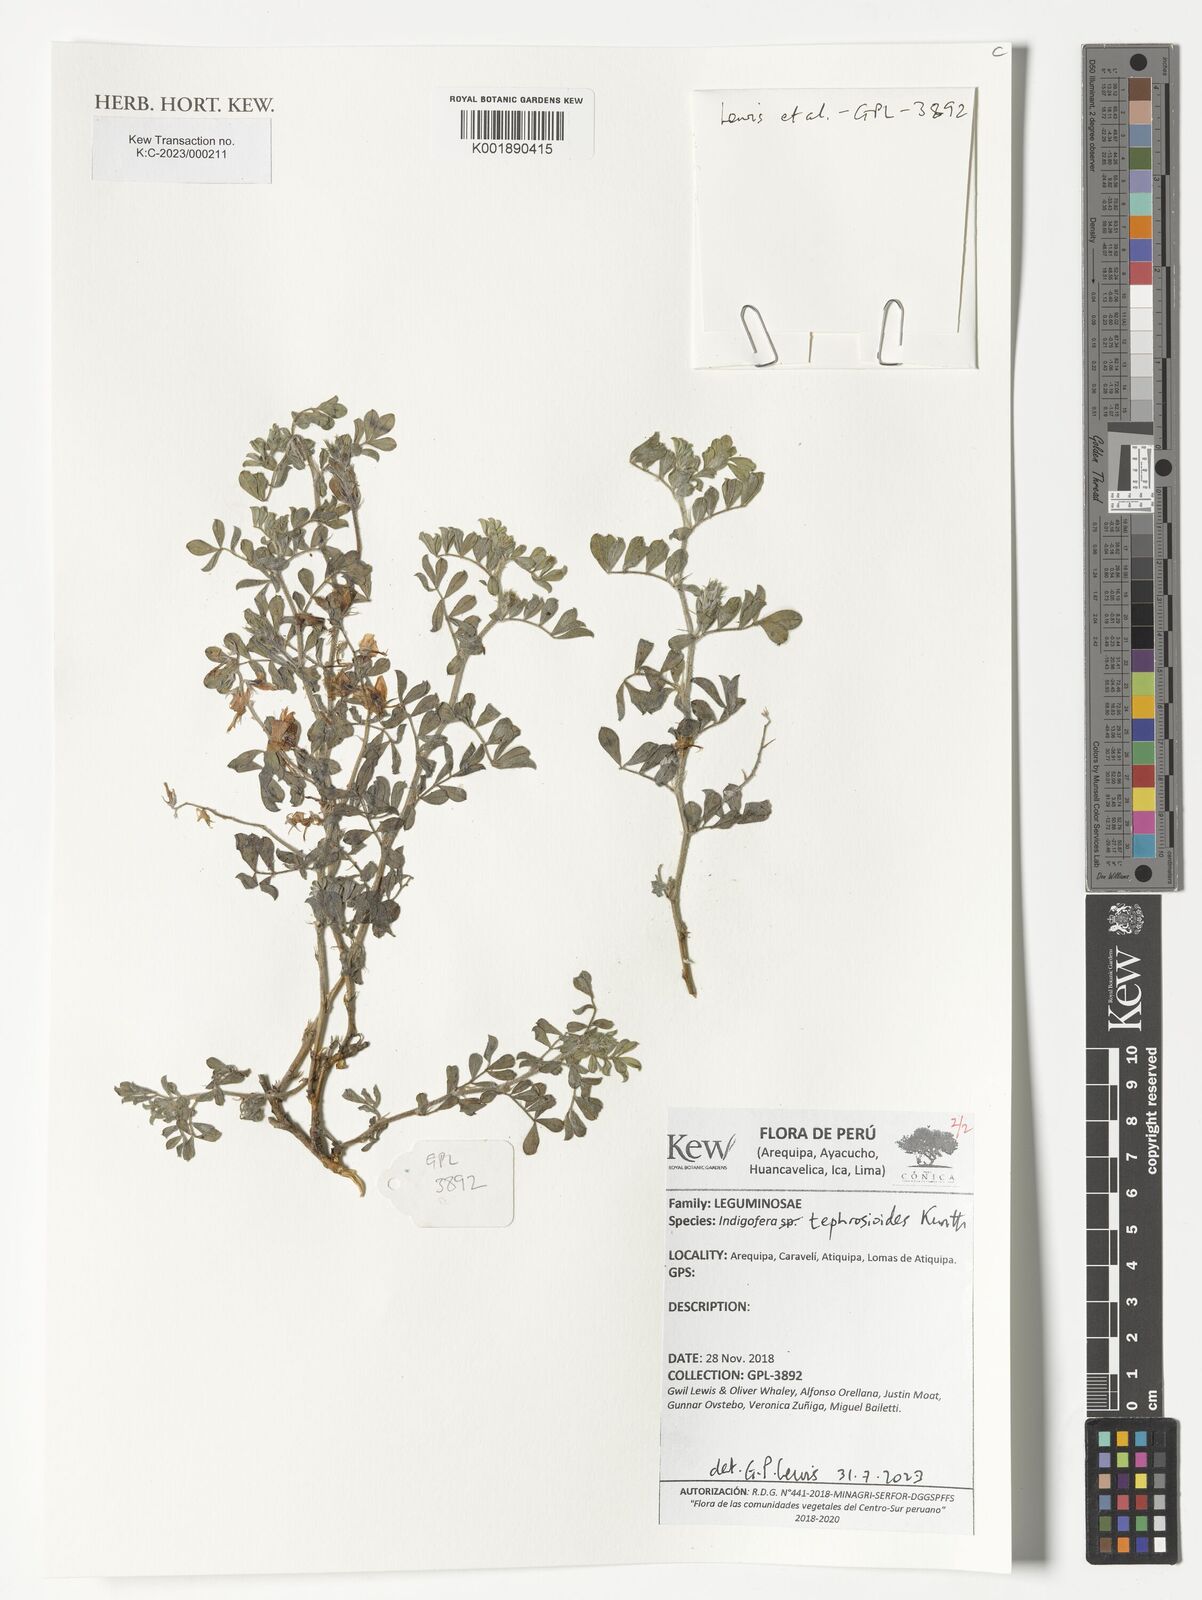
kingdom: Plantae
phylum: Tracheophyta
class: Magnoliopsida
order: Fabales
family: Fabaceae
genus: Indigofera
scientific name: Indigofera tephrosioides
